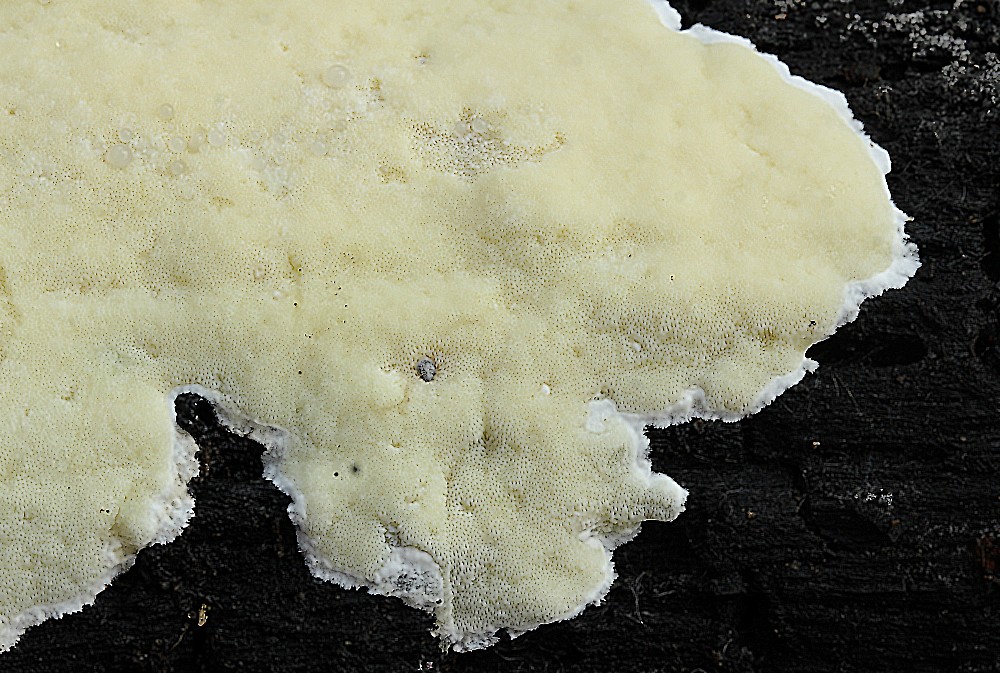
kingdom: Fungi
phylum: Basidiomycota
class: Agaricomycetes
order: Polyporales
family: Irpicaceae
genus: Gloeoporus
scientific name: Gloeoporus pannocinctus
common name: grøngul foldporesvamp
